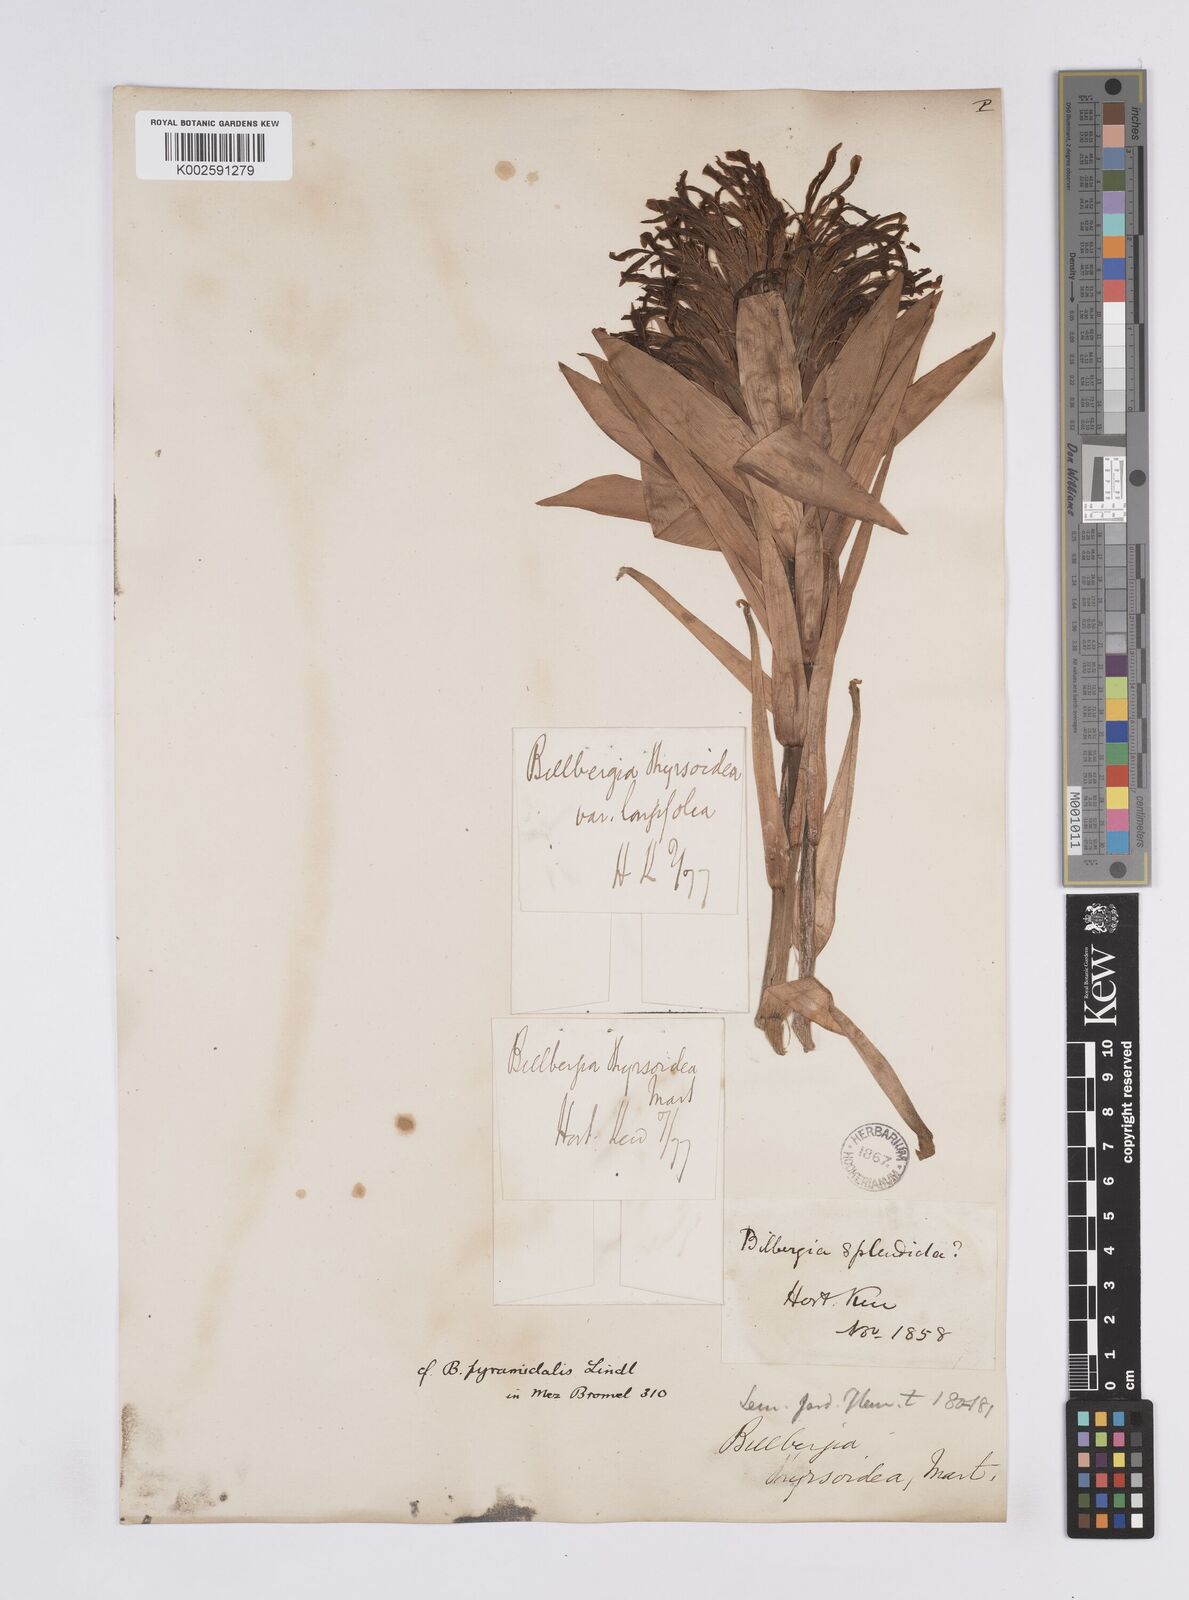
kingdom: Plantae
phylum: Tracheophyta
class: Liliopsida
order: Poales
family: Bromeliaceae
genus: Billbergia
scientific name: Billbergia pyramidalis
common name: Foolproofplant
